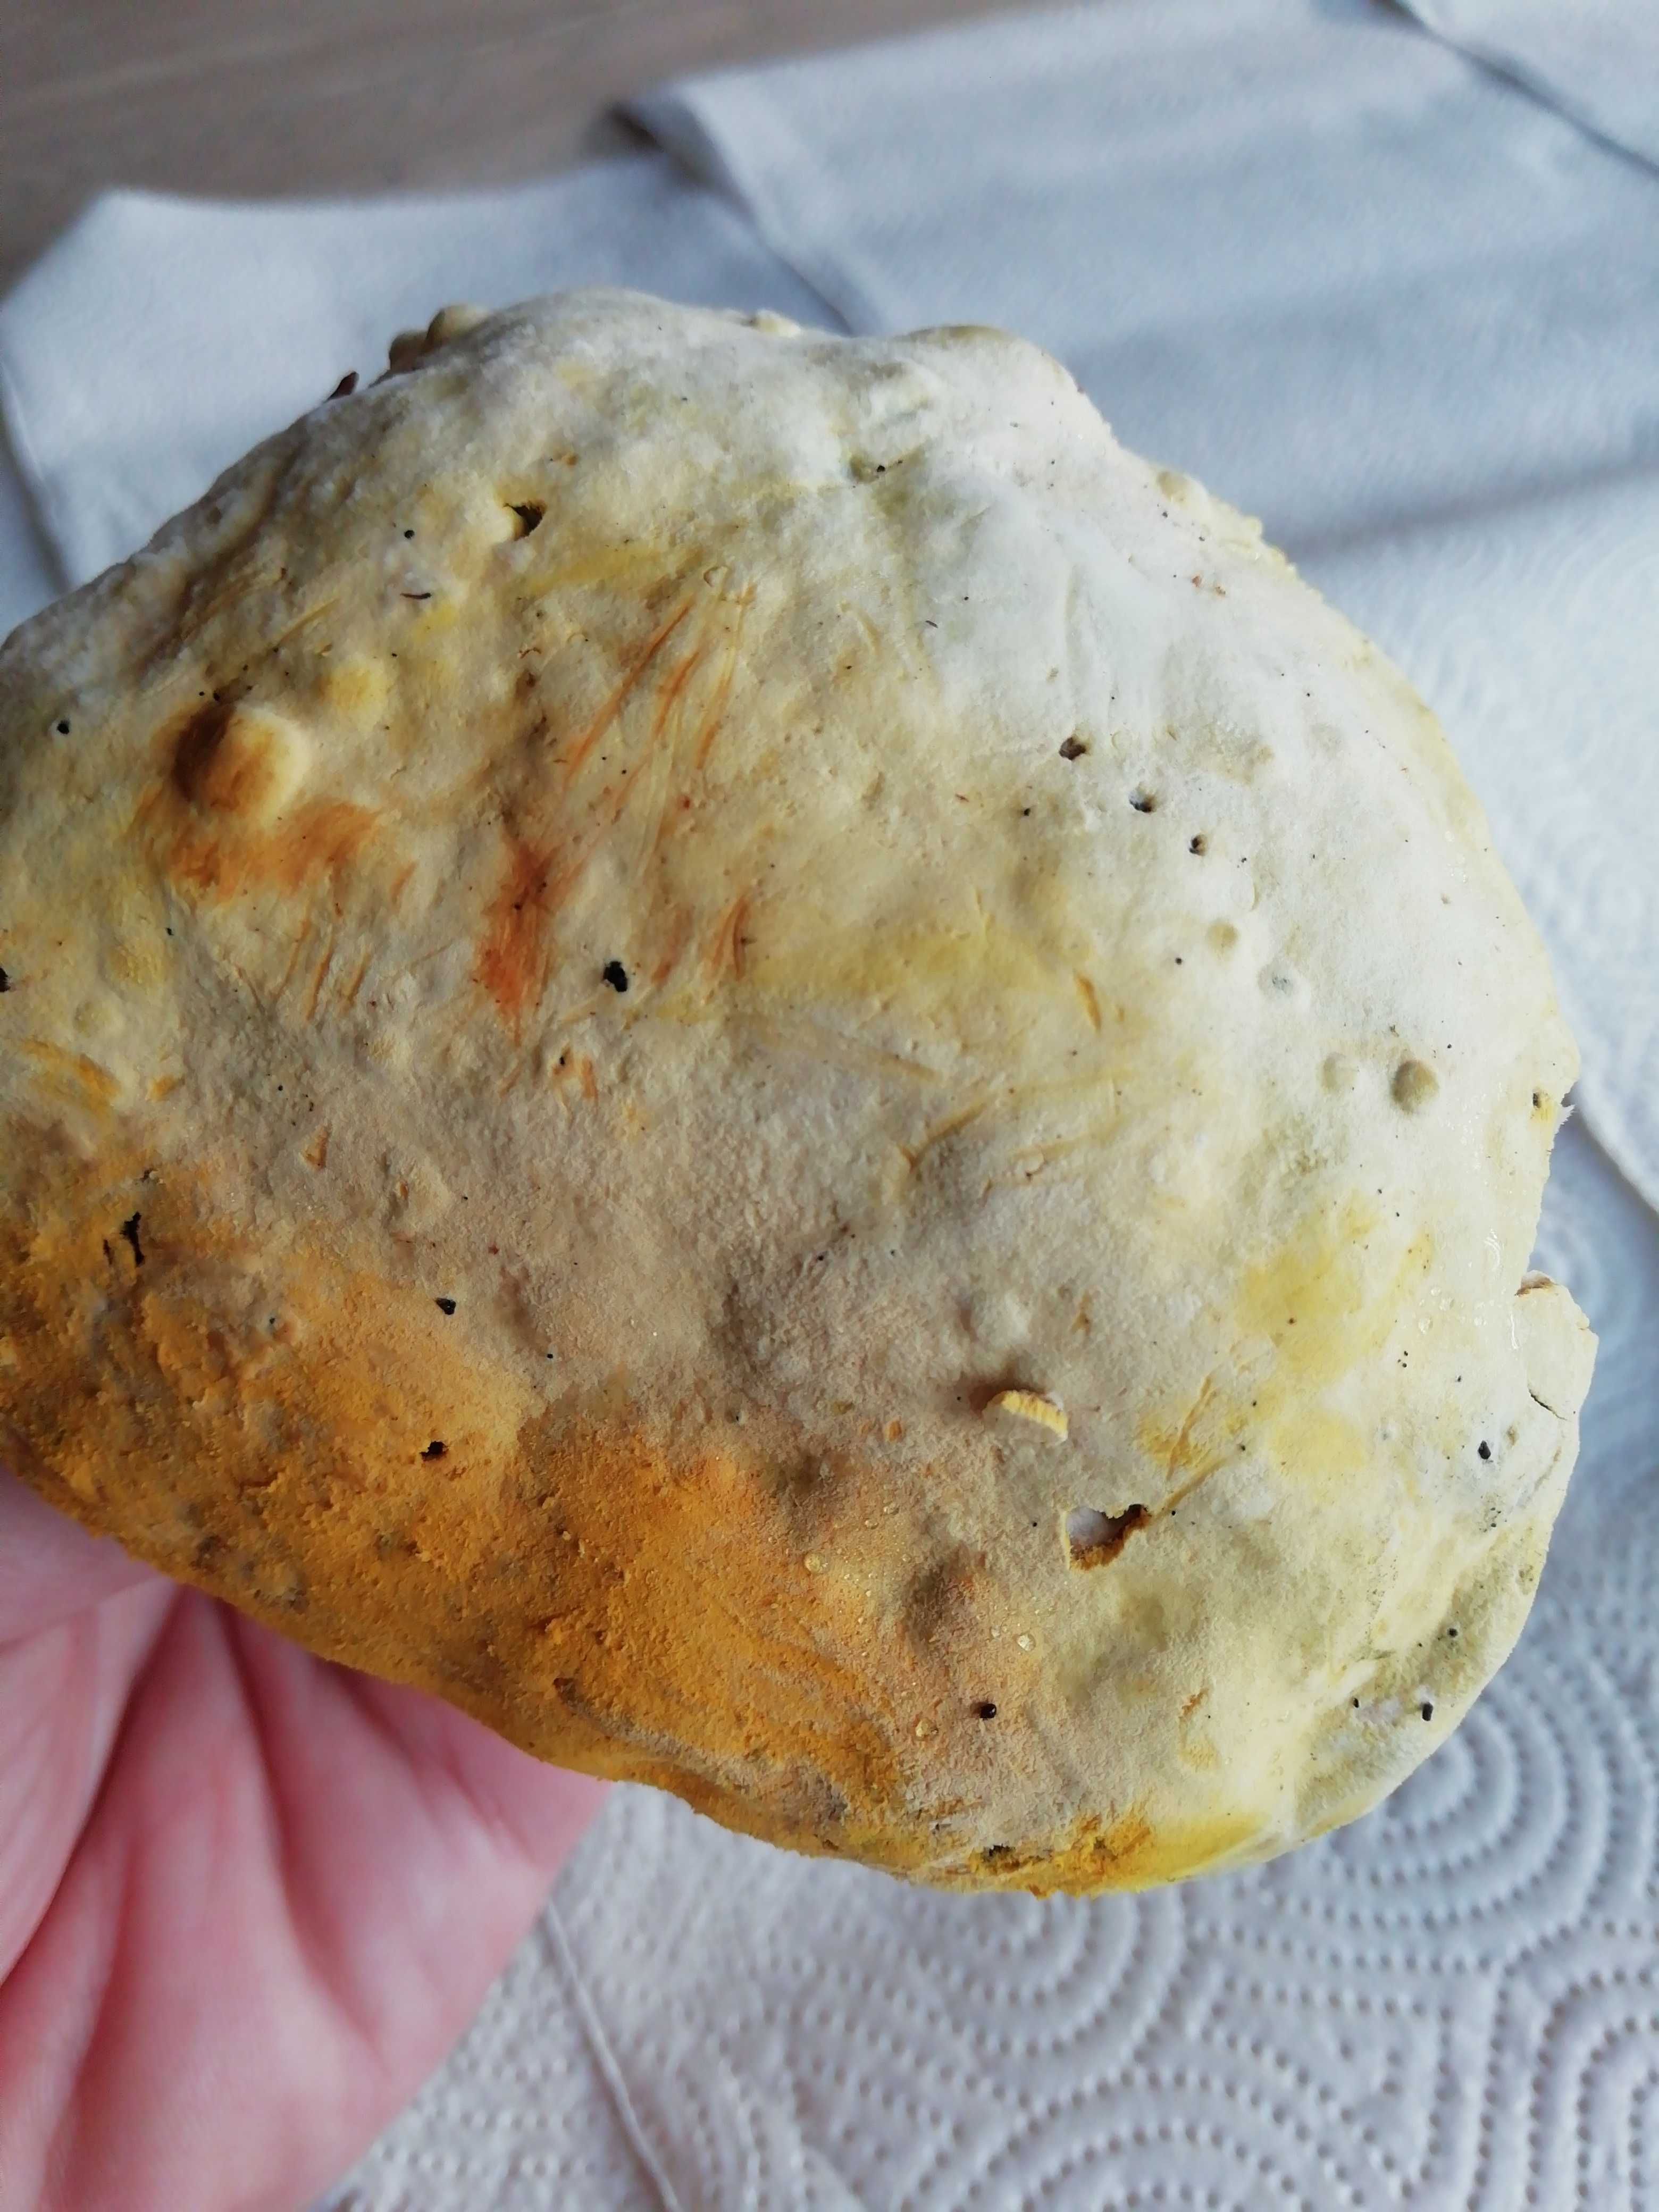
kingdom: Fungi
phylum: Ascomycota
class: Sordariomycetes
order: Hypocreales
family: Hypocreaceae
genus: Hypomyces
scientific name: Hypomyces
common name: snylteskorpe
